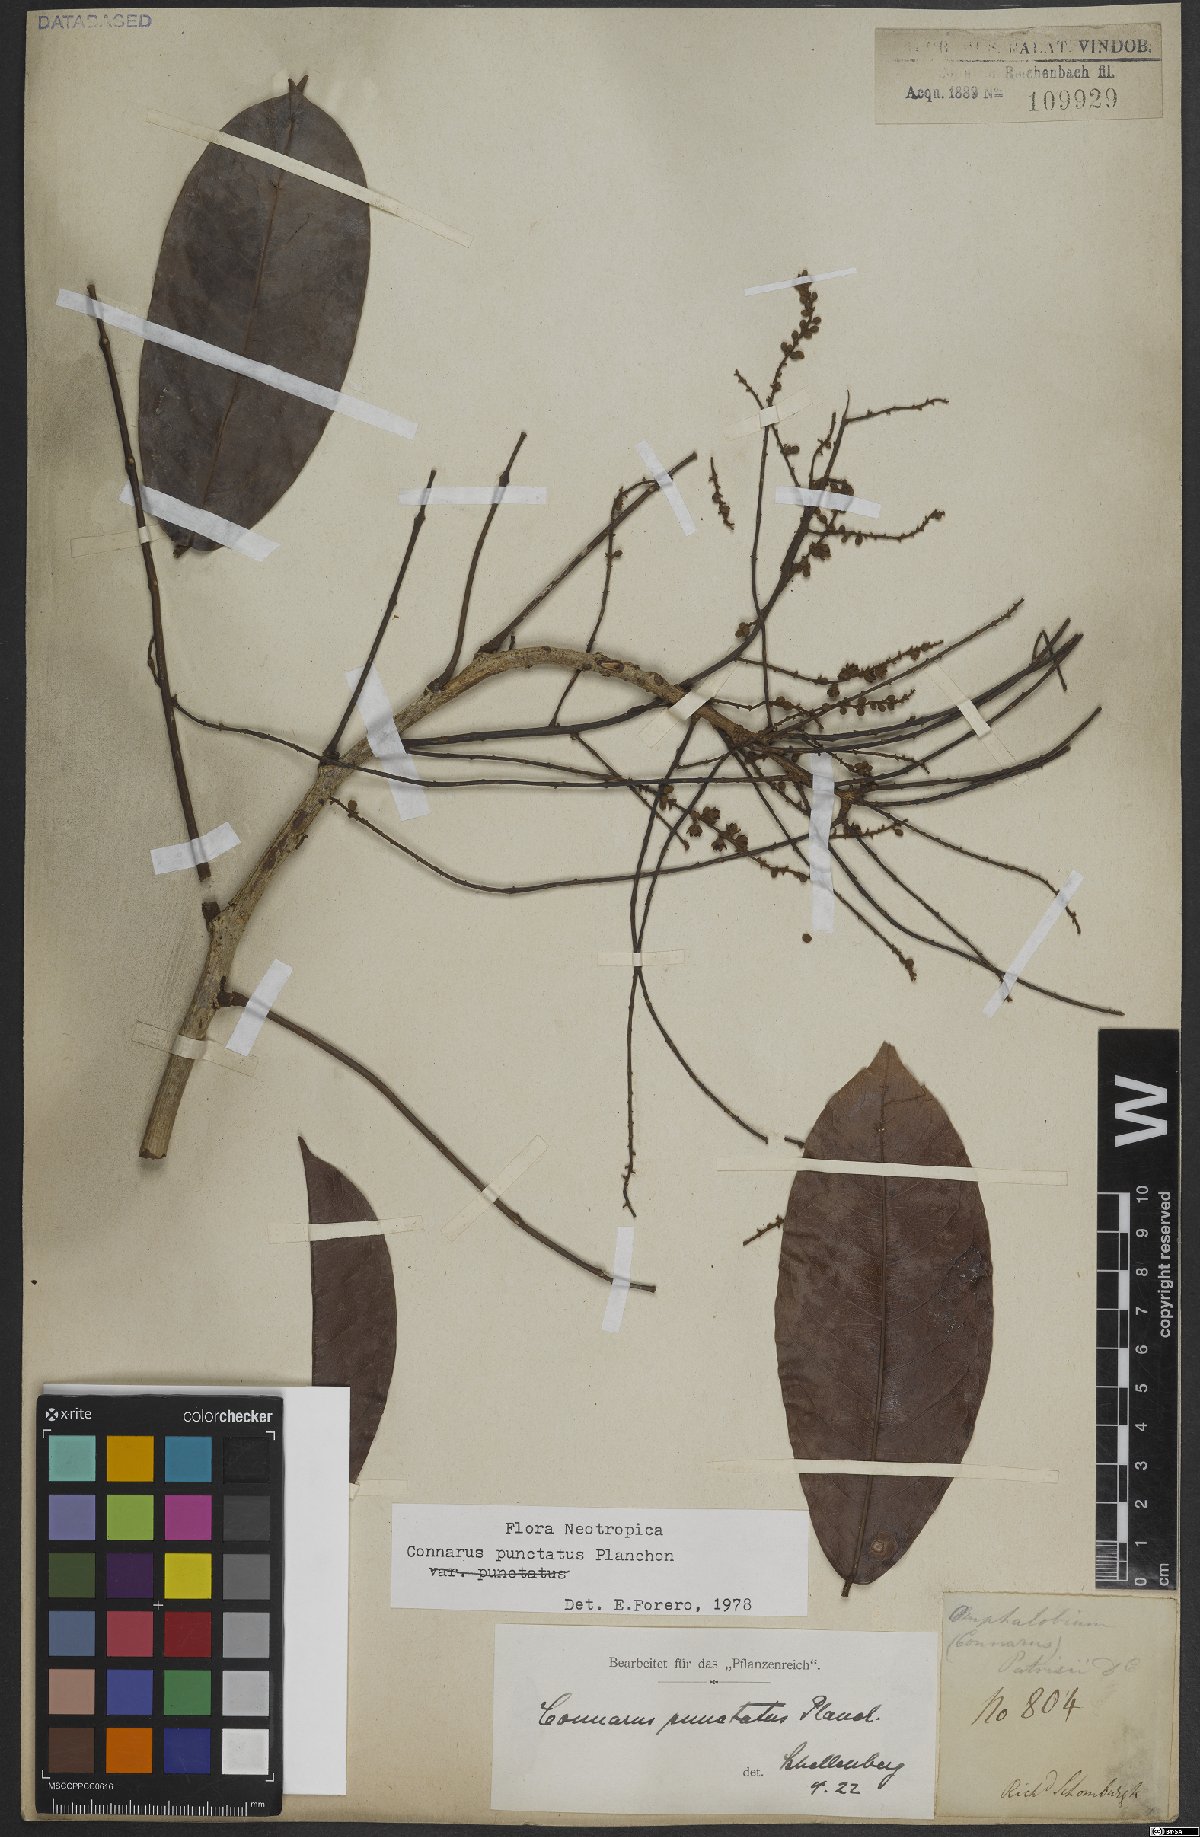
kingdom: Plantae
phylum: Tracheophyta
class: Magnoliopsida
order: Oxalidales
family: Connaraceae
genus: Connarus
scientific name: Connarus punctatus
